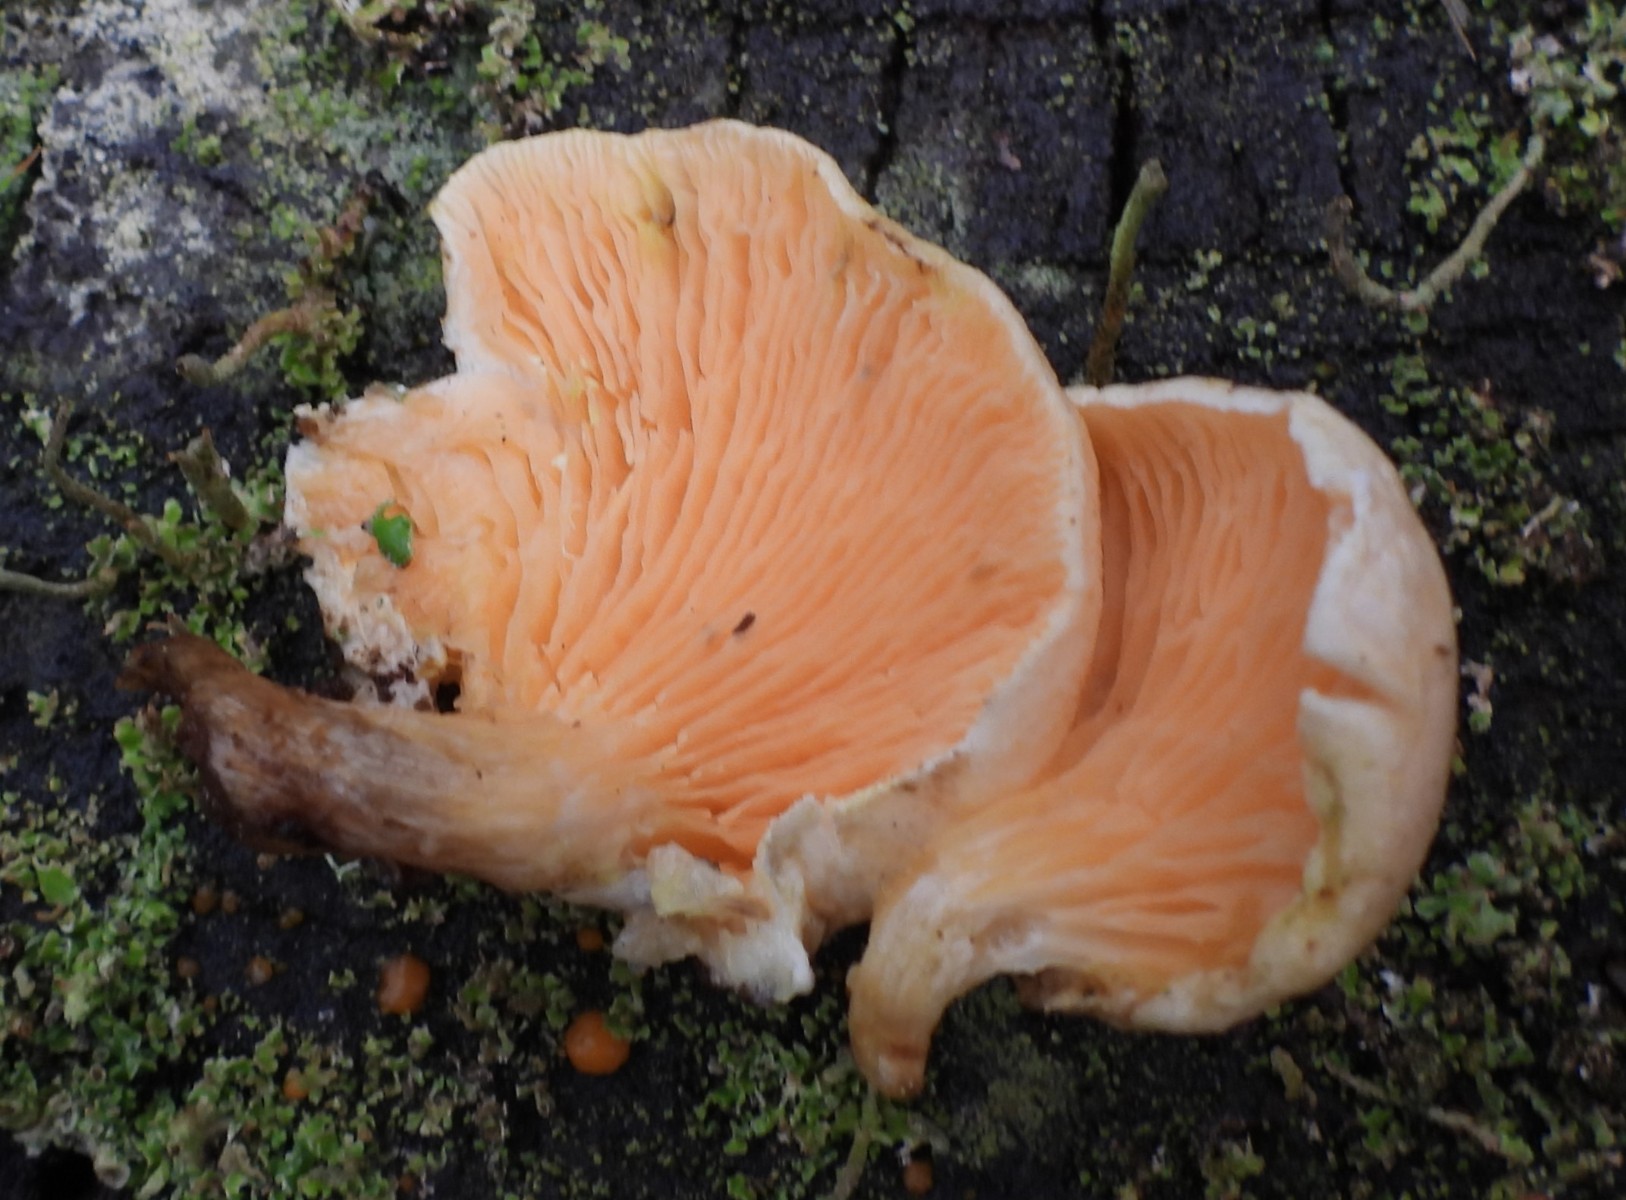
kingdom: Fungi
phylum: Basidiomycota
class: Agaricomycetes
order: Boletales
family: Hygrophoropsidaceae
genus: Hygrophoropsis
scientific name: Hygrophoropsis aurantiaca
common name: almindelig orangekantarel
